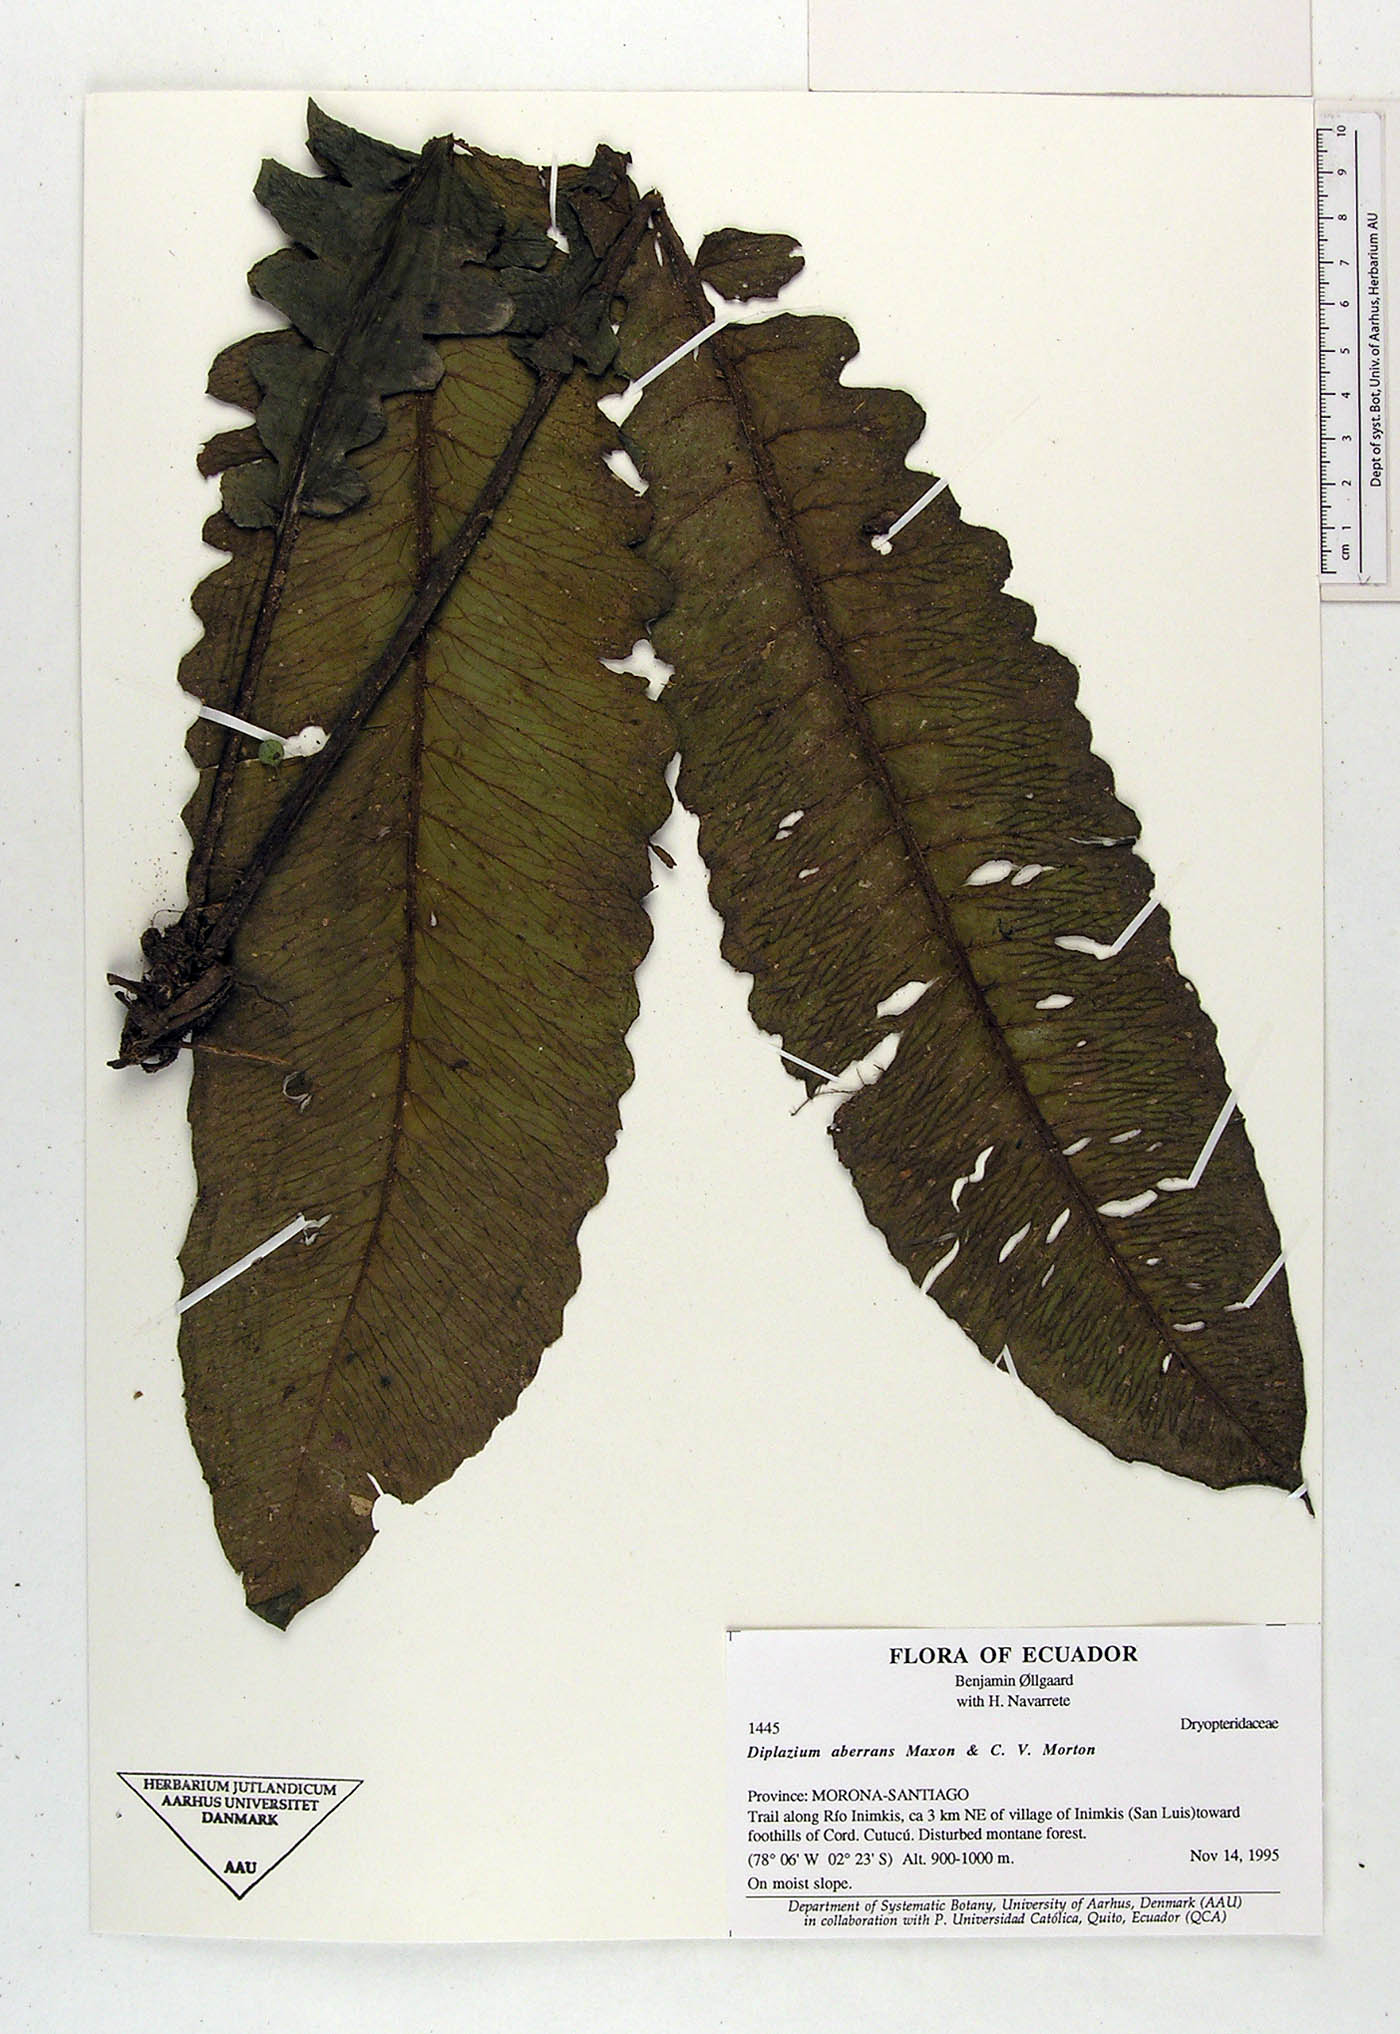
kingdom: Plantae
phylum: Tracheophyta
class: Polypodiopsida
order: Polypodiales
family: Athyriaceae
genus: Diplazium
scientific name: Diplazium aberrans
